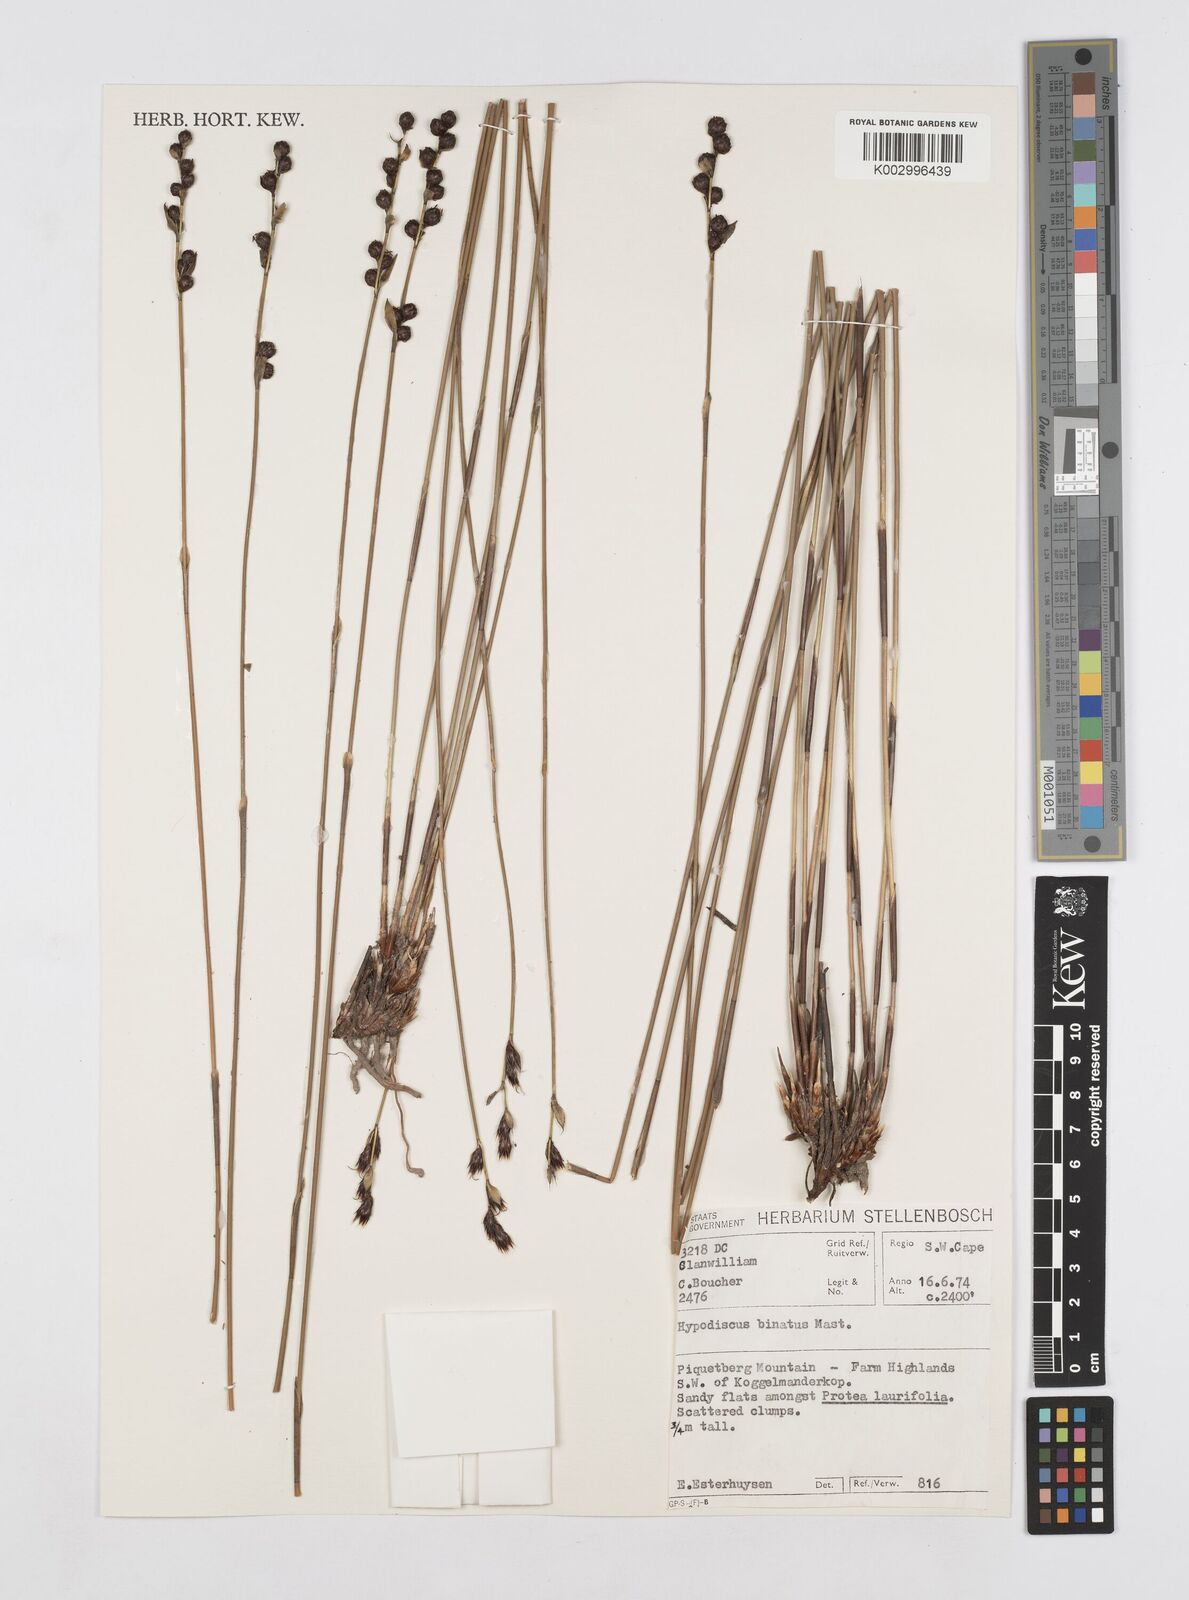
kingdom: Plantae
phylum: Tracheophyta
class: Liliopsida
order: Poales
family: Restionaceae
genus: Hypodiscus
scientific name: Hypodiscus laevigatus
